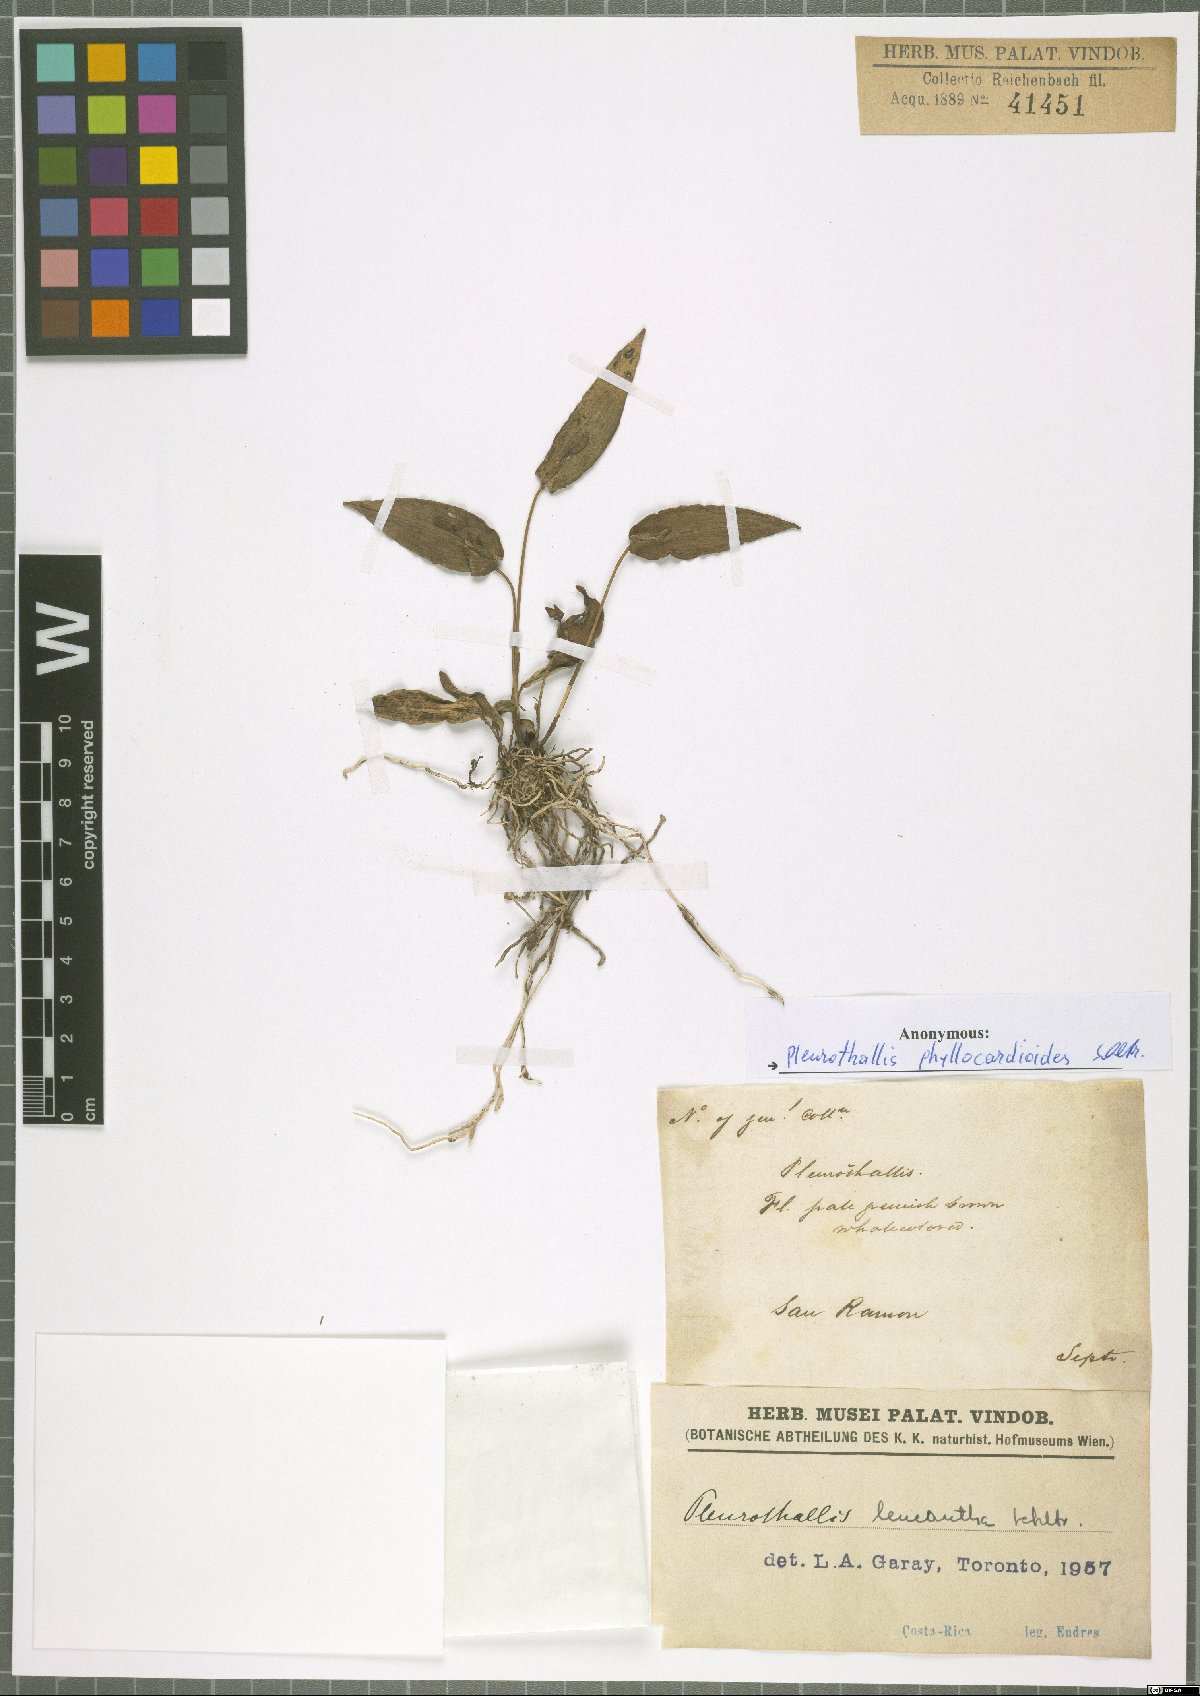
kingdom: Plantae
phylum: Tracheophyta
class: Liliopsida
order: Asparagales
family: Orchidaceae
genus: Pleurothallis
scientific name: Pleurothallis phyllocardioides
